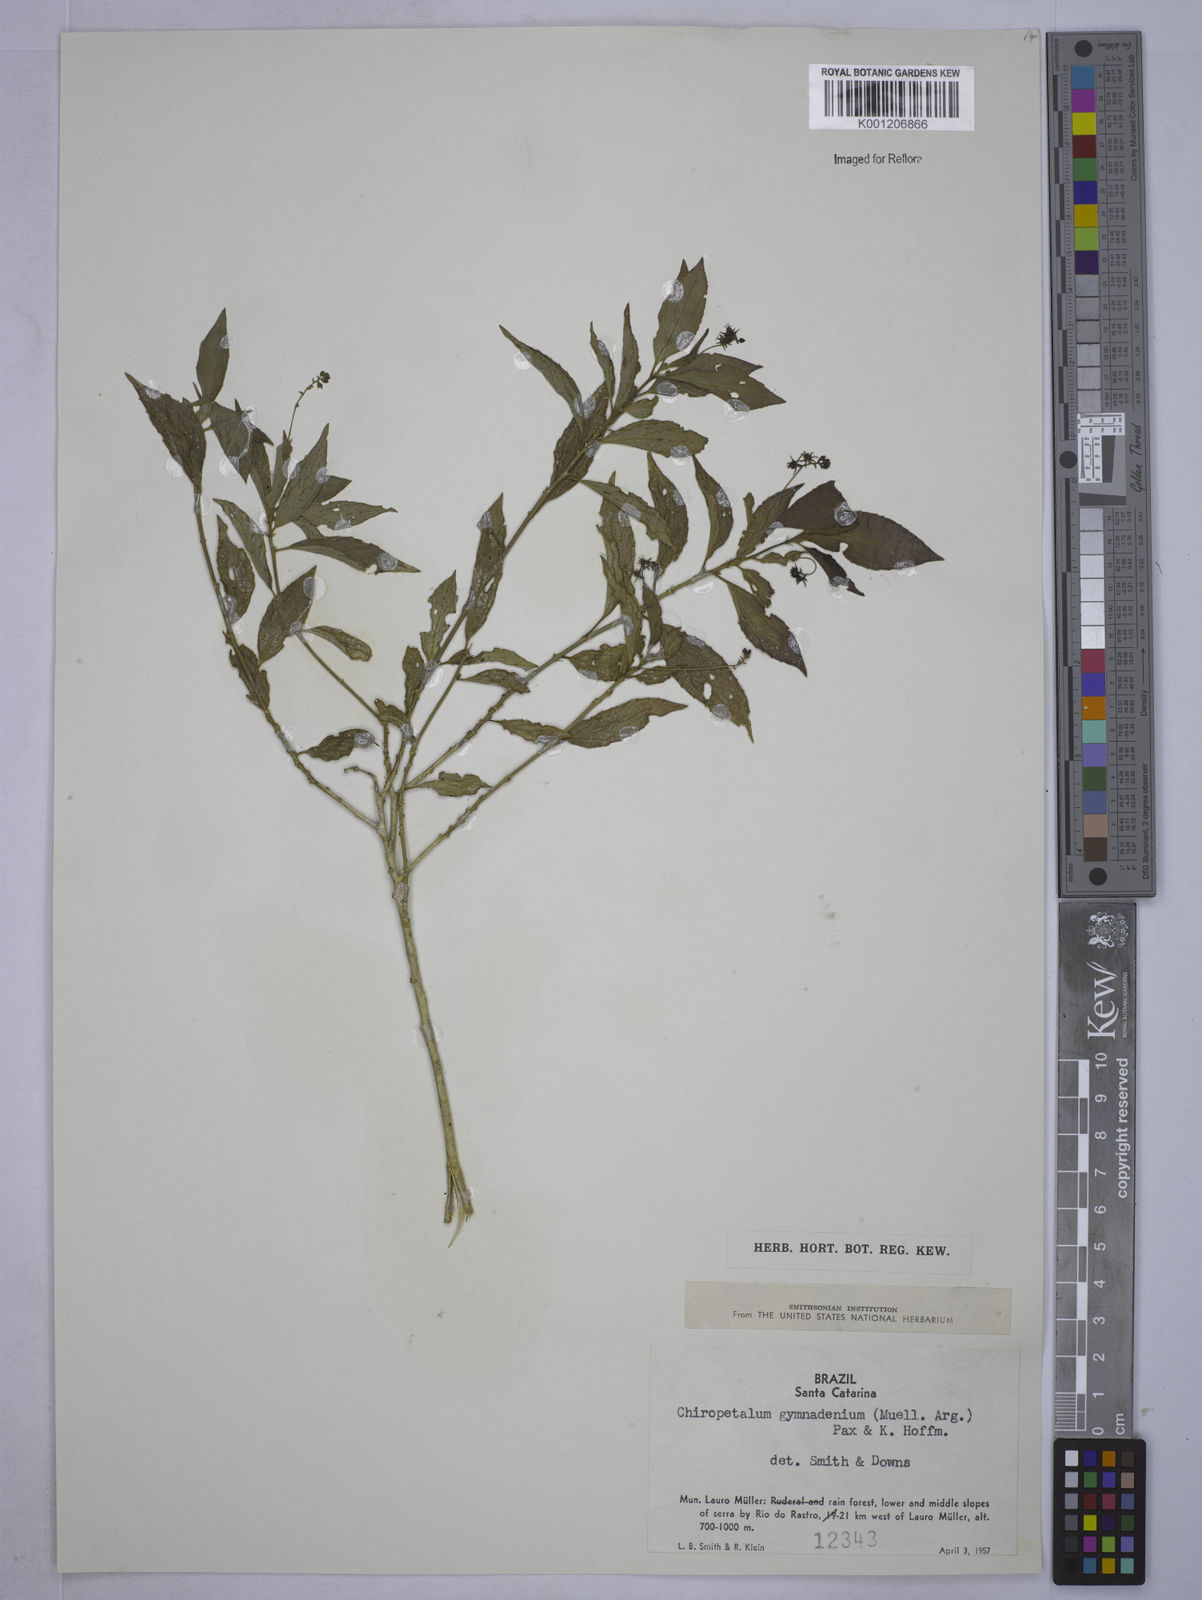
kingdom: Plantae
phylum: Tracheophyta
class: Magnoliopsida
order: Malpighiales
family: Euphorbiaceae
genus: Chiropetalum
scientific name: Chiropetalum
